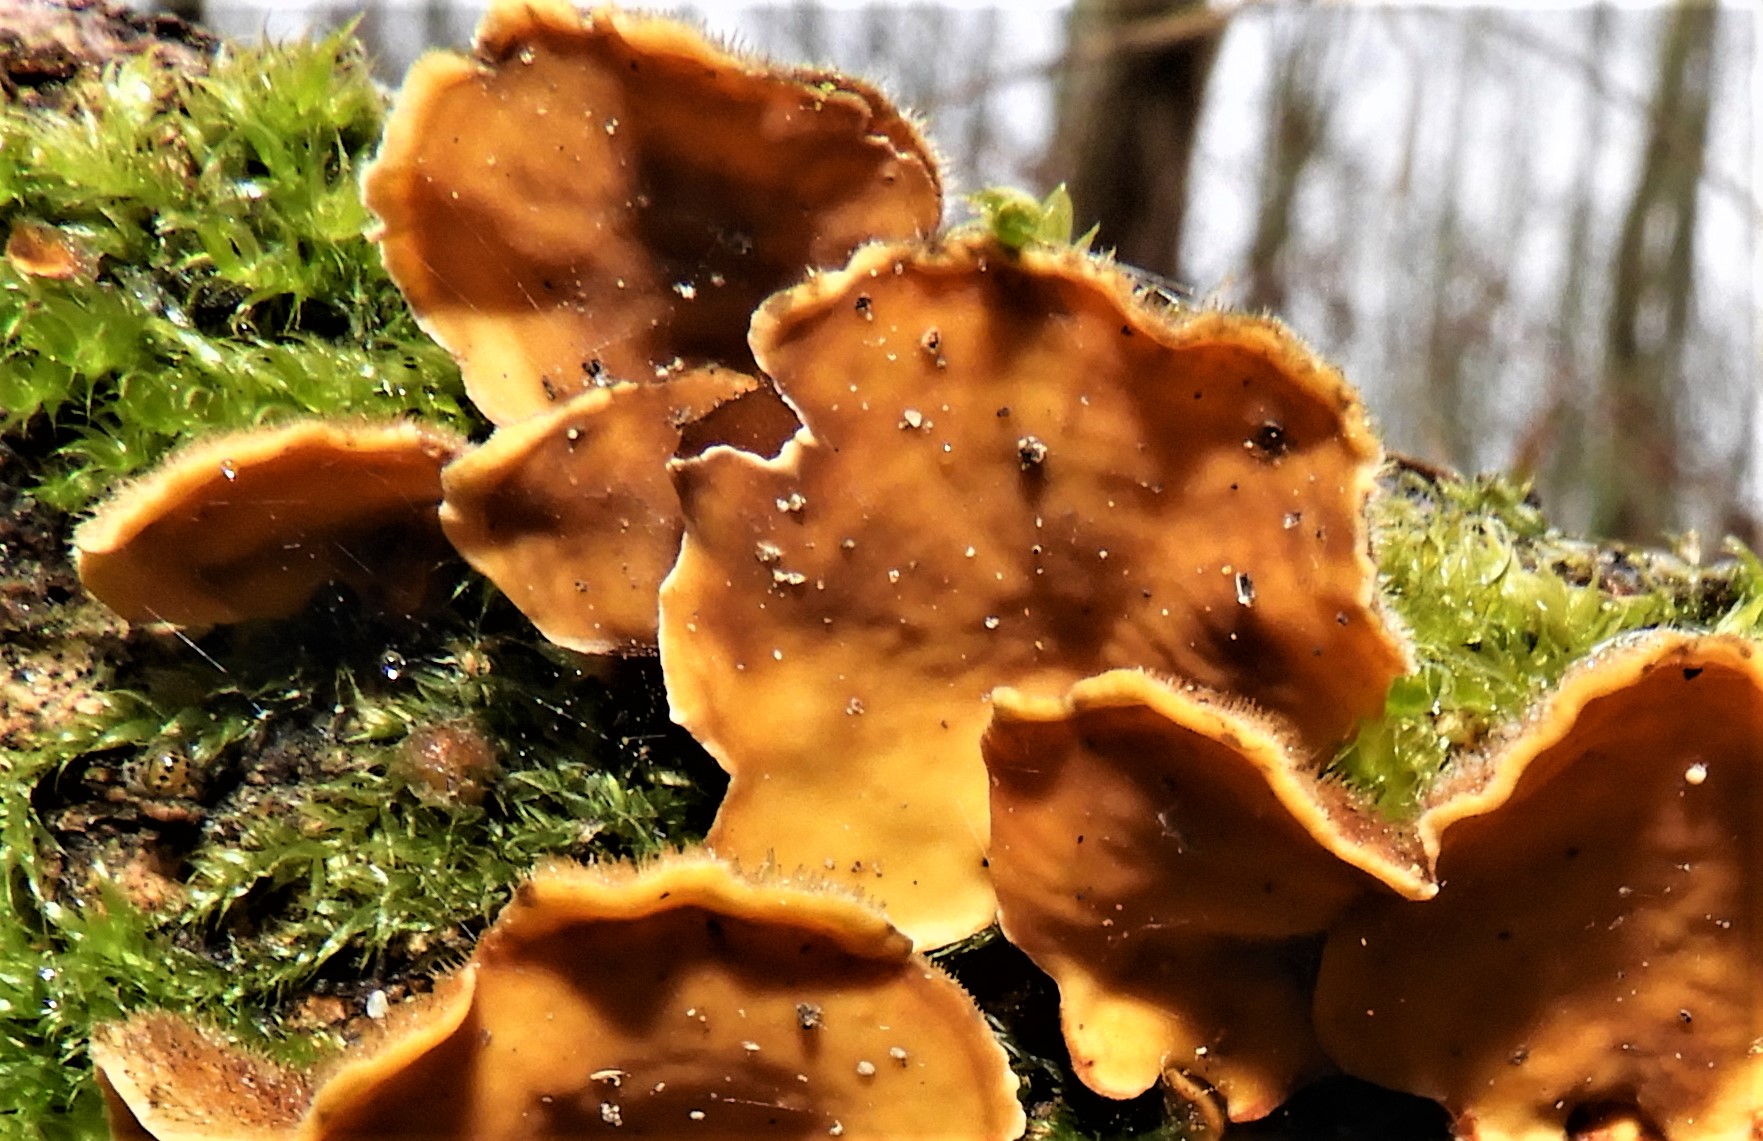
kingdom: Fungi
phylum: Basidiomycota
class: Agaricomycetes
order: Russulales
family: Stereaceae
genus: Stereum
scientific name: Stereum hirsutum
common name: håret lædersvamp
